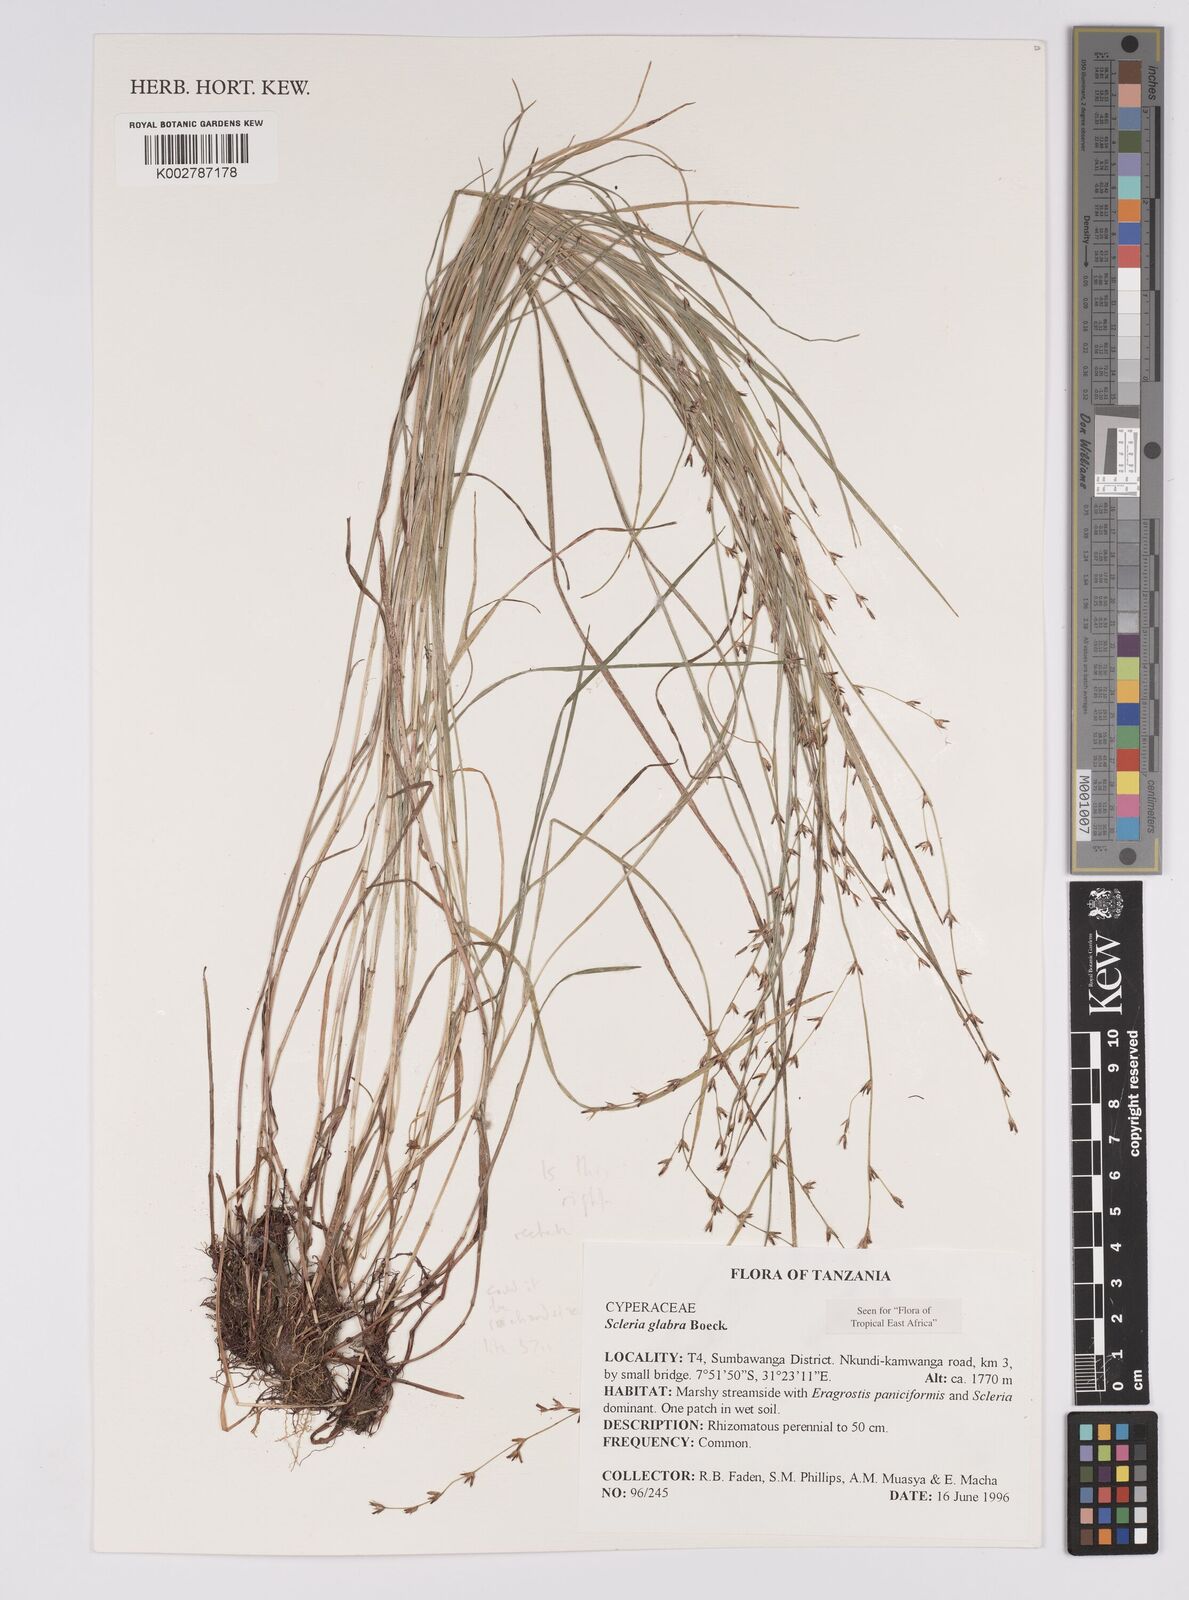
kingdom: Plantae
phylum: Tracheophyta
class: Liliopsida
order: Poales
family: Cyperaceae
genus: Scleria
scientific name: Scleria richardsiae
